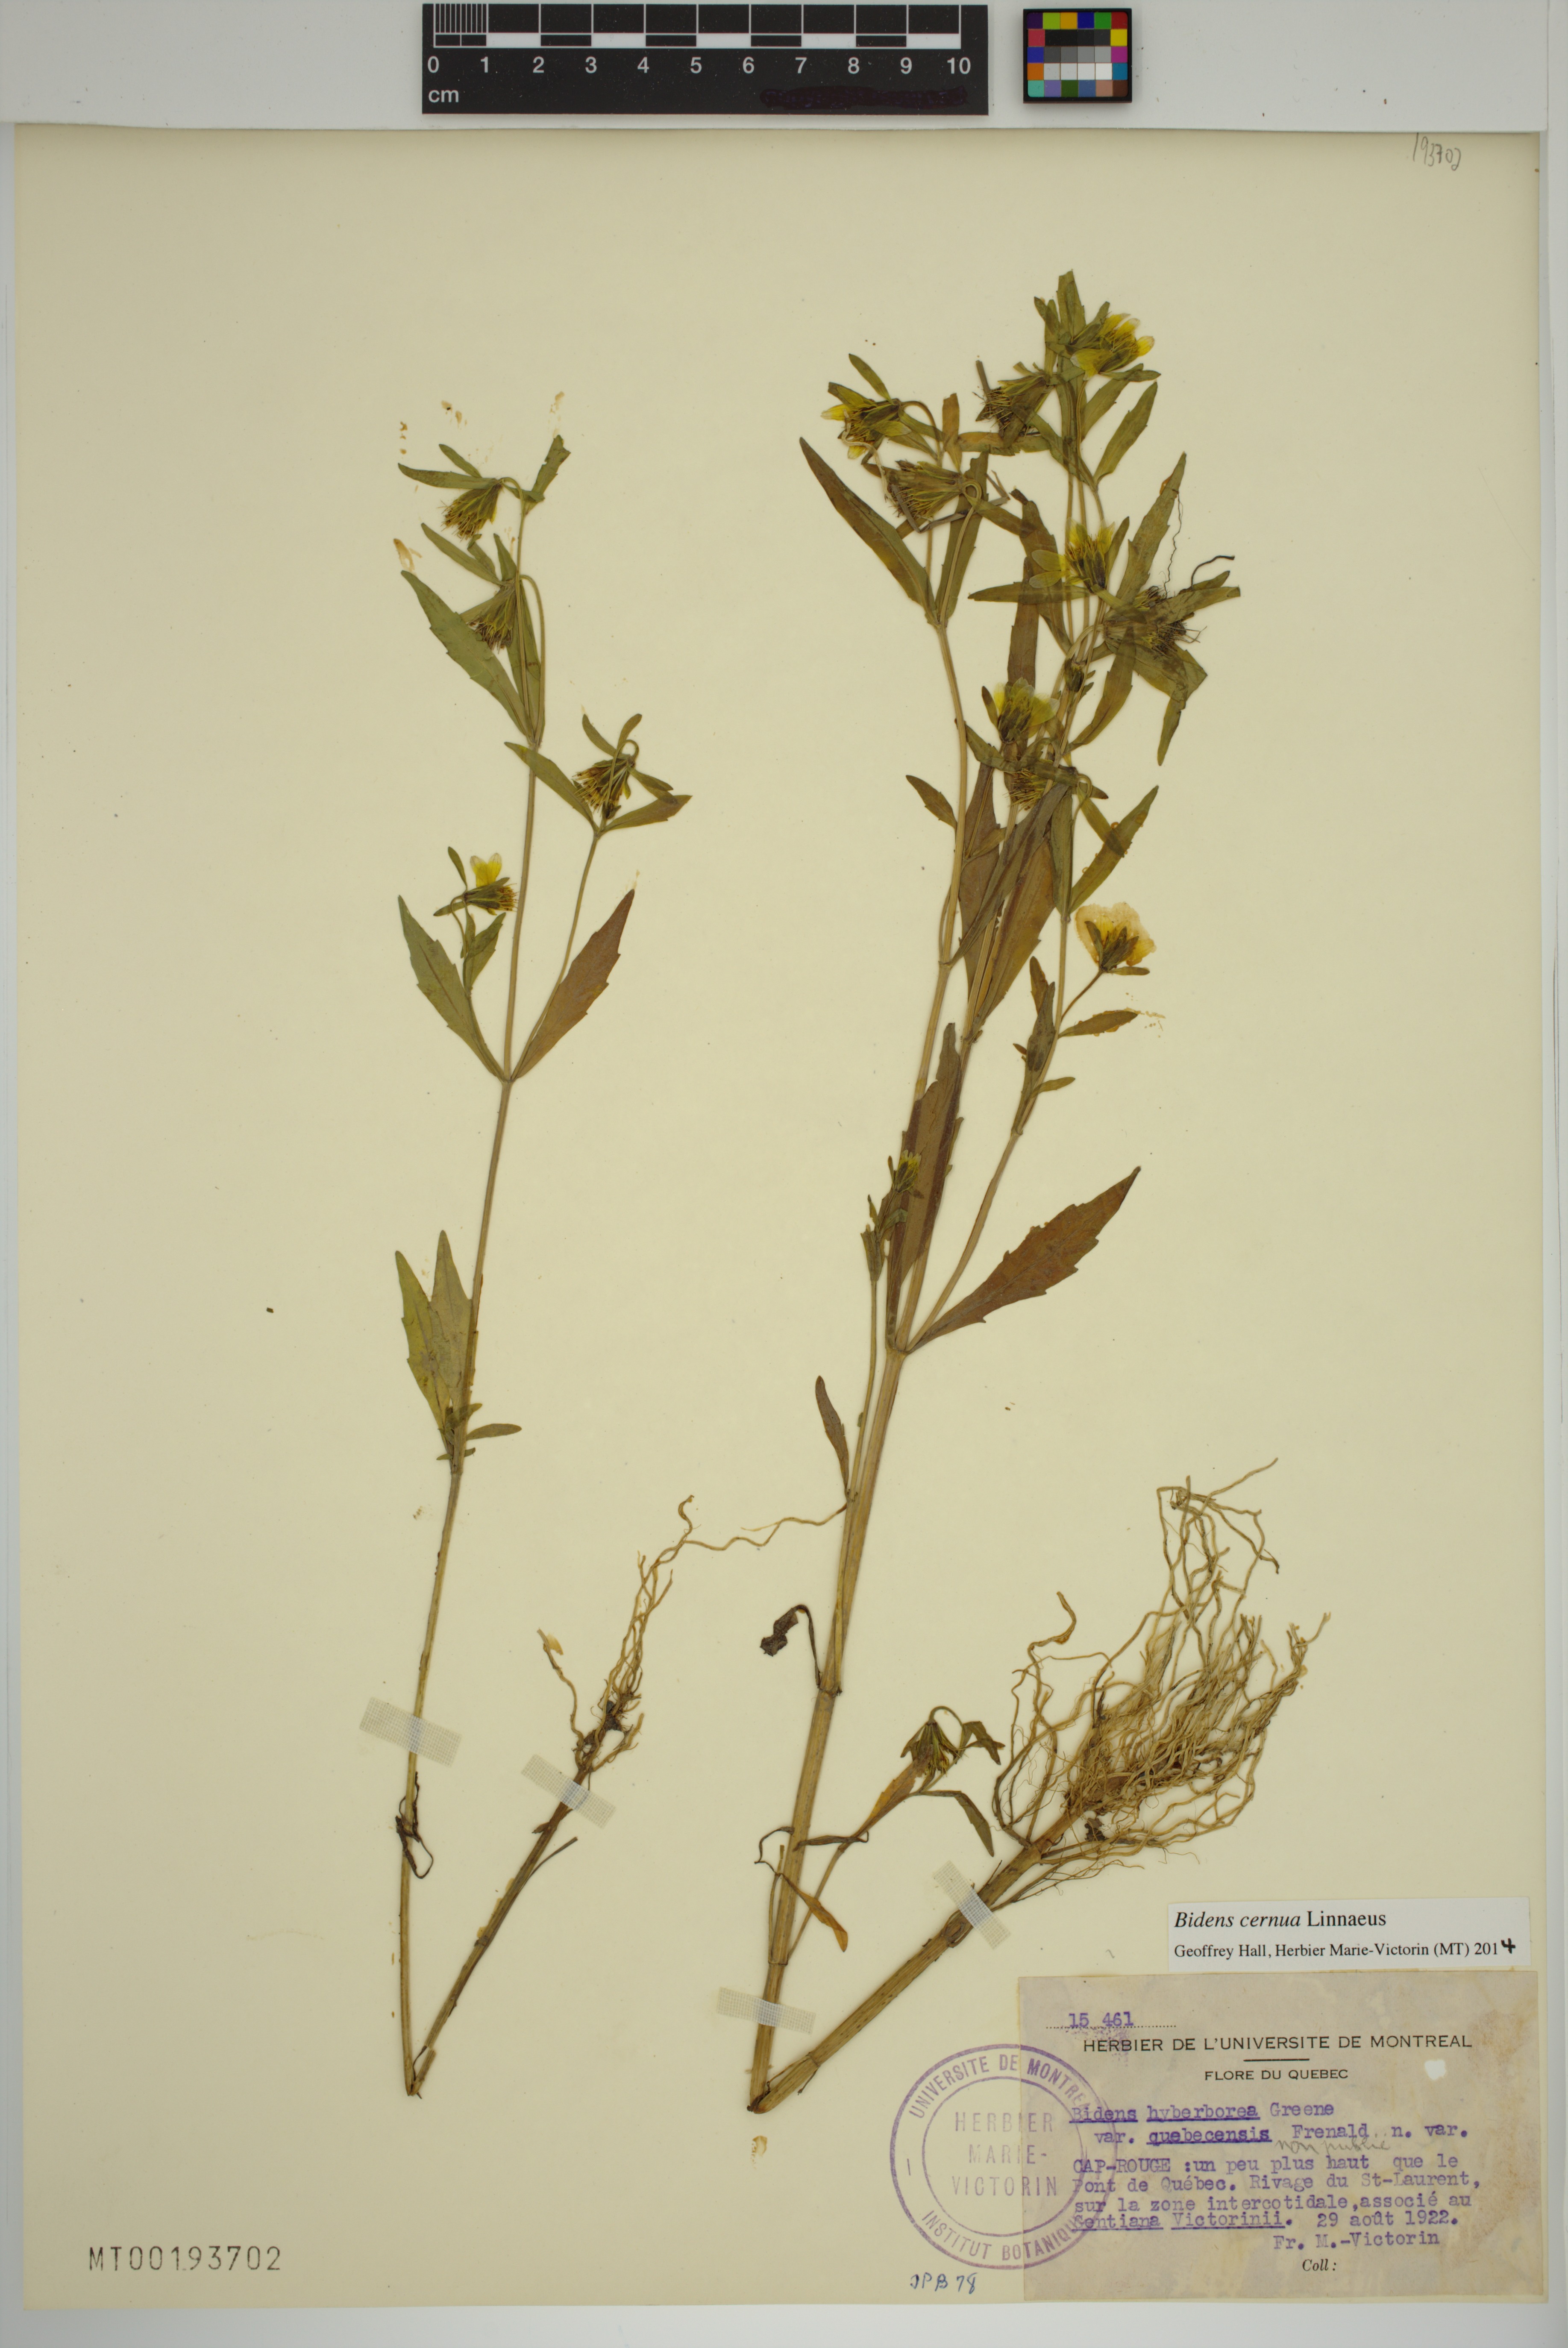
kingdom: Plantae
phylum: Tracheophyta
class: Magnoliopsida
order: Asterales
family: Asteraceae
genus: Bidens
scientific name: Bidens cernua
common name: Nodding bur-marigold
